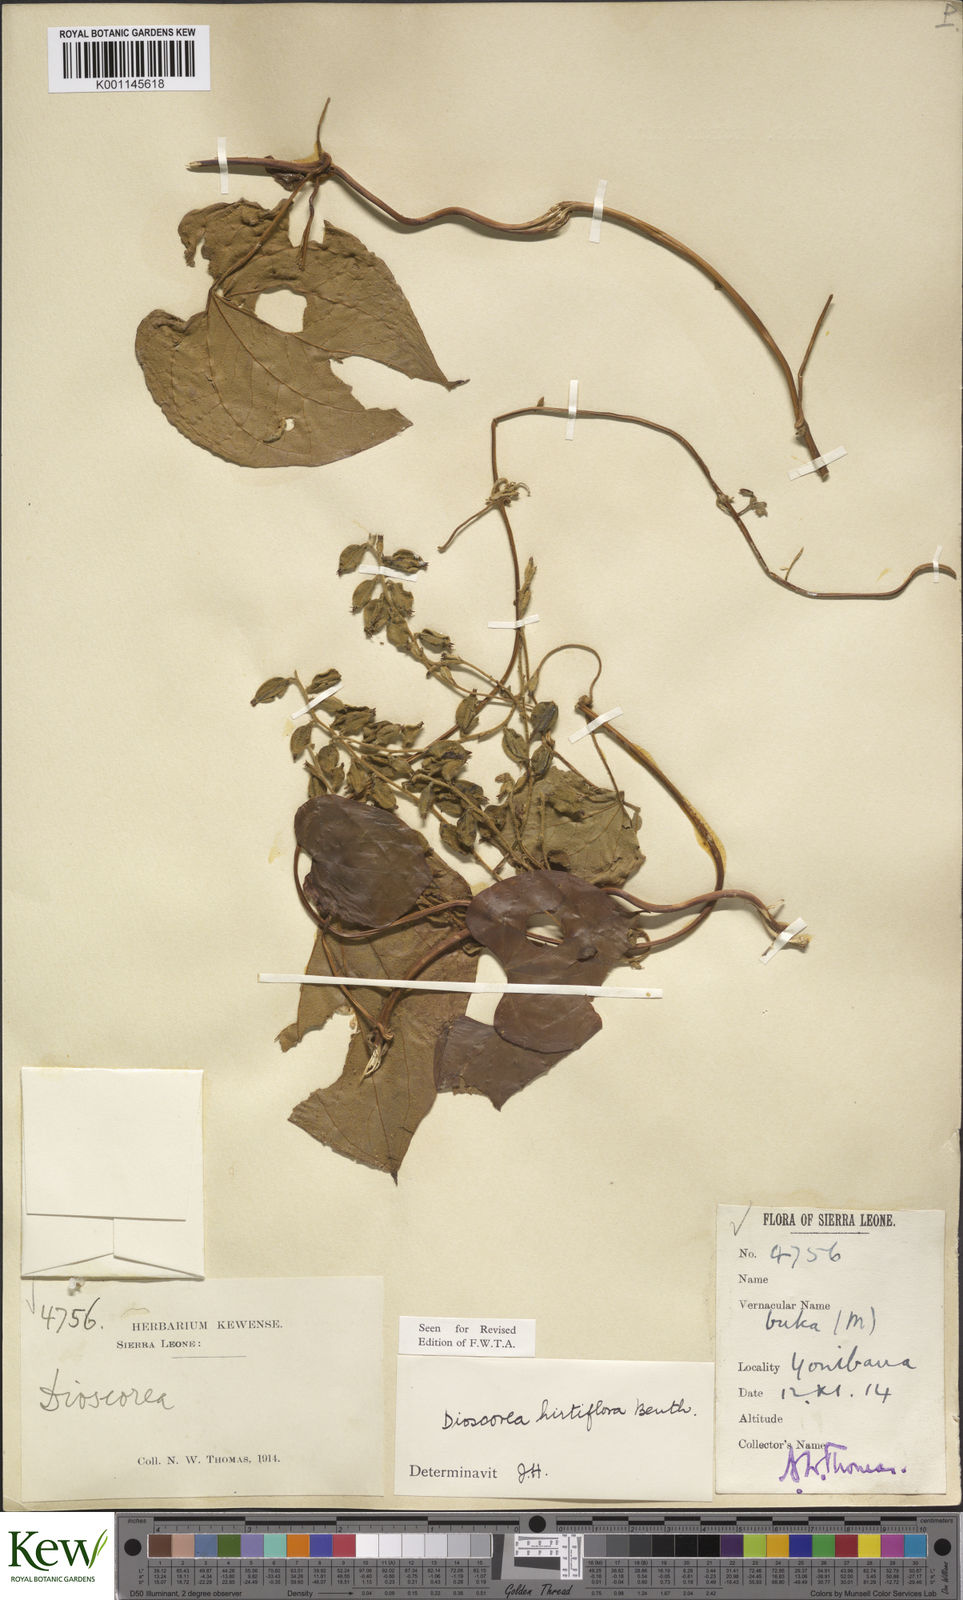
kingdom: Plantae
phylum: Tracheophyta
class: Liliopsida
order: Dioscoreales
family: Dioscoreaceae
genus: Dioscorea
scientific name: Dioscorea hirtiflora
